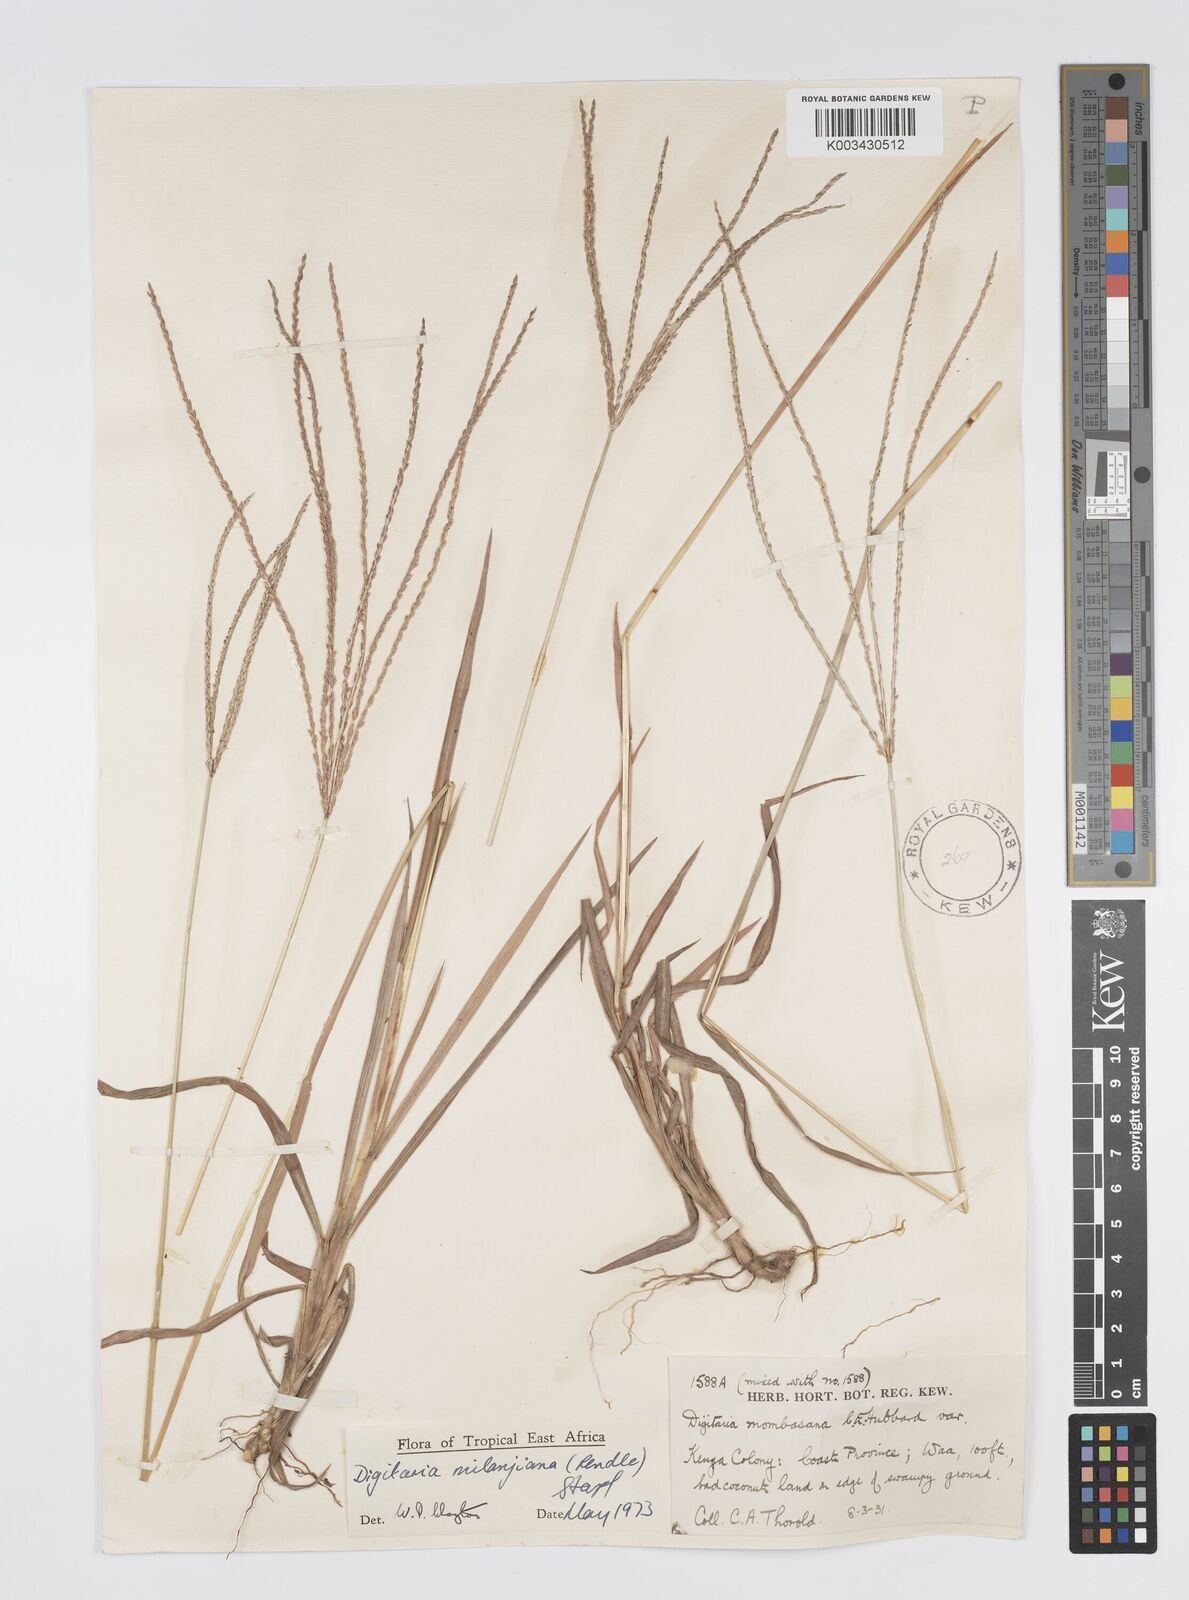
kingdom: Plantae
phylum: Tracheophyta
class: Liliopsida
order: Poales
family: Poaceae
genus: Digitaria
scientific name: Digitaria milanjiana
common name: Madagascar crabgrass
